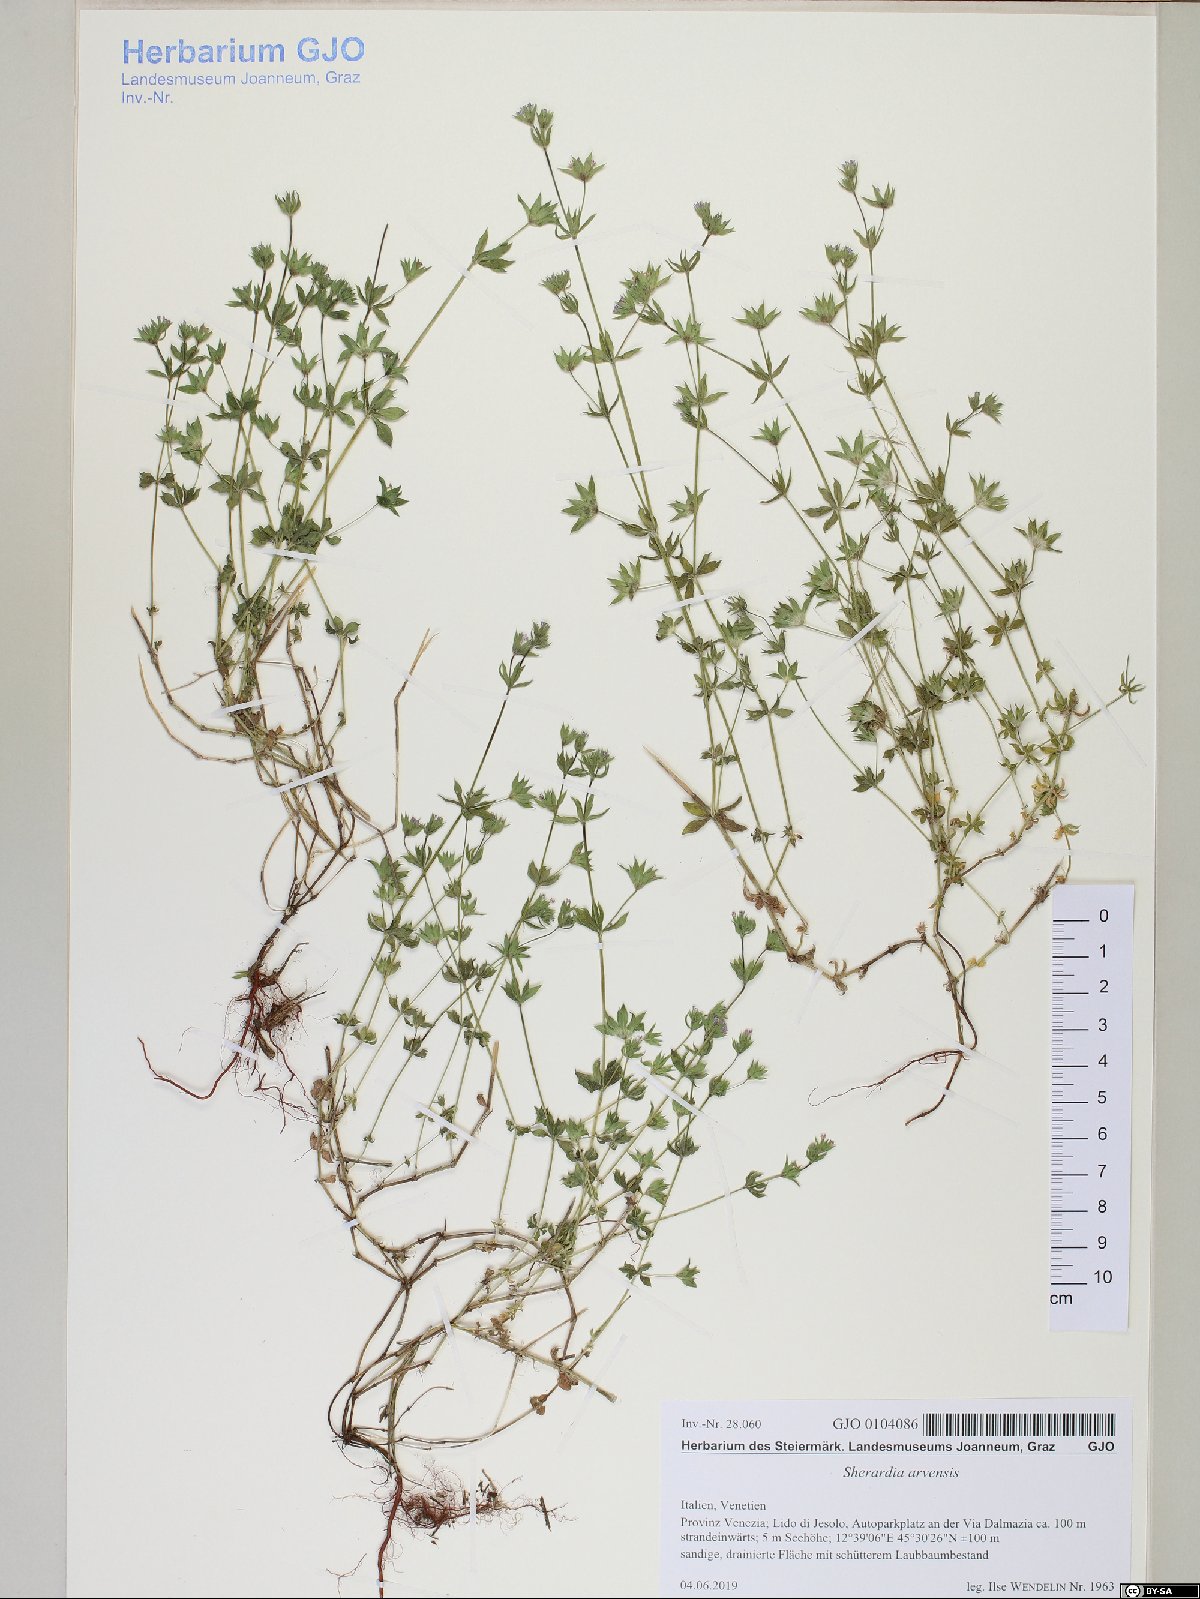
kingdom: Plantae
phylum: Tracheophyta
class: Magnoliopsida
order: Gentianales
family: Rubiaceae
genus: Sherardia
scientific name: Sherardia arvensis
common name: Field madder
